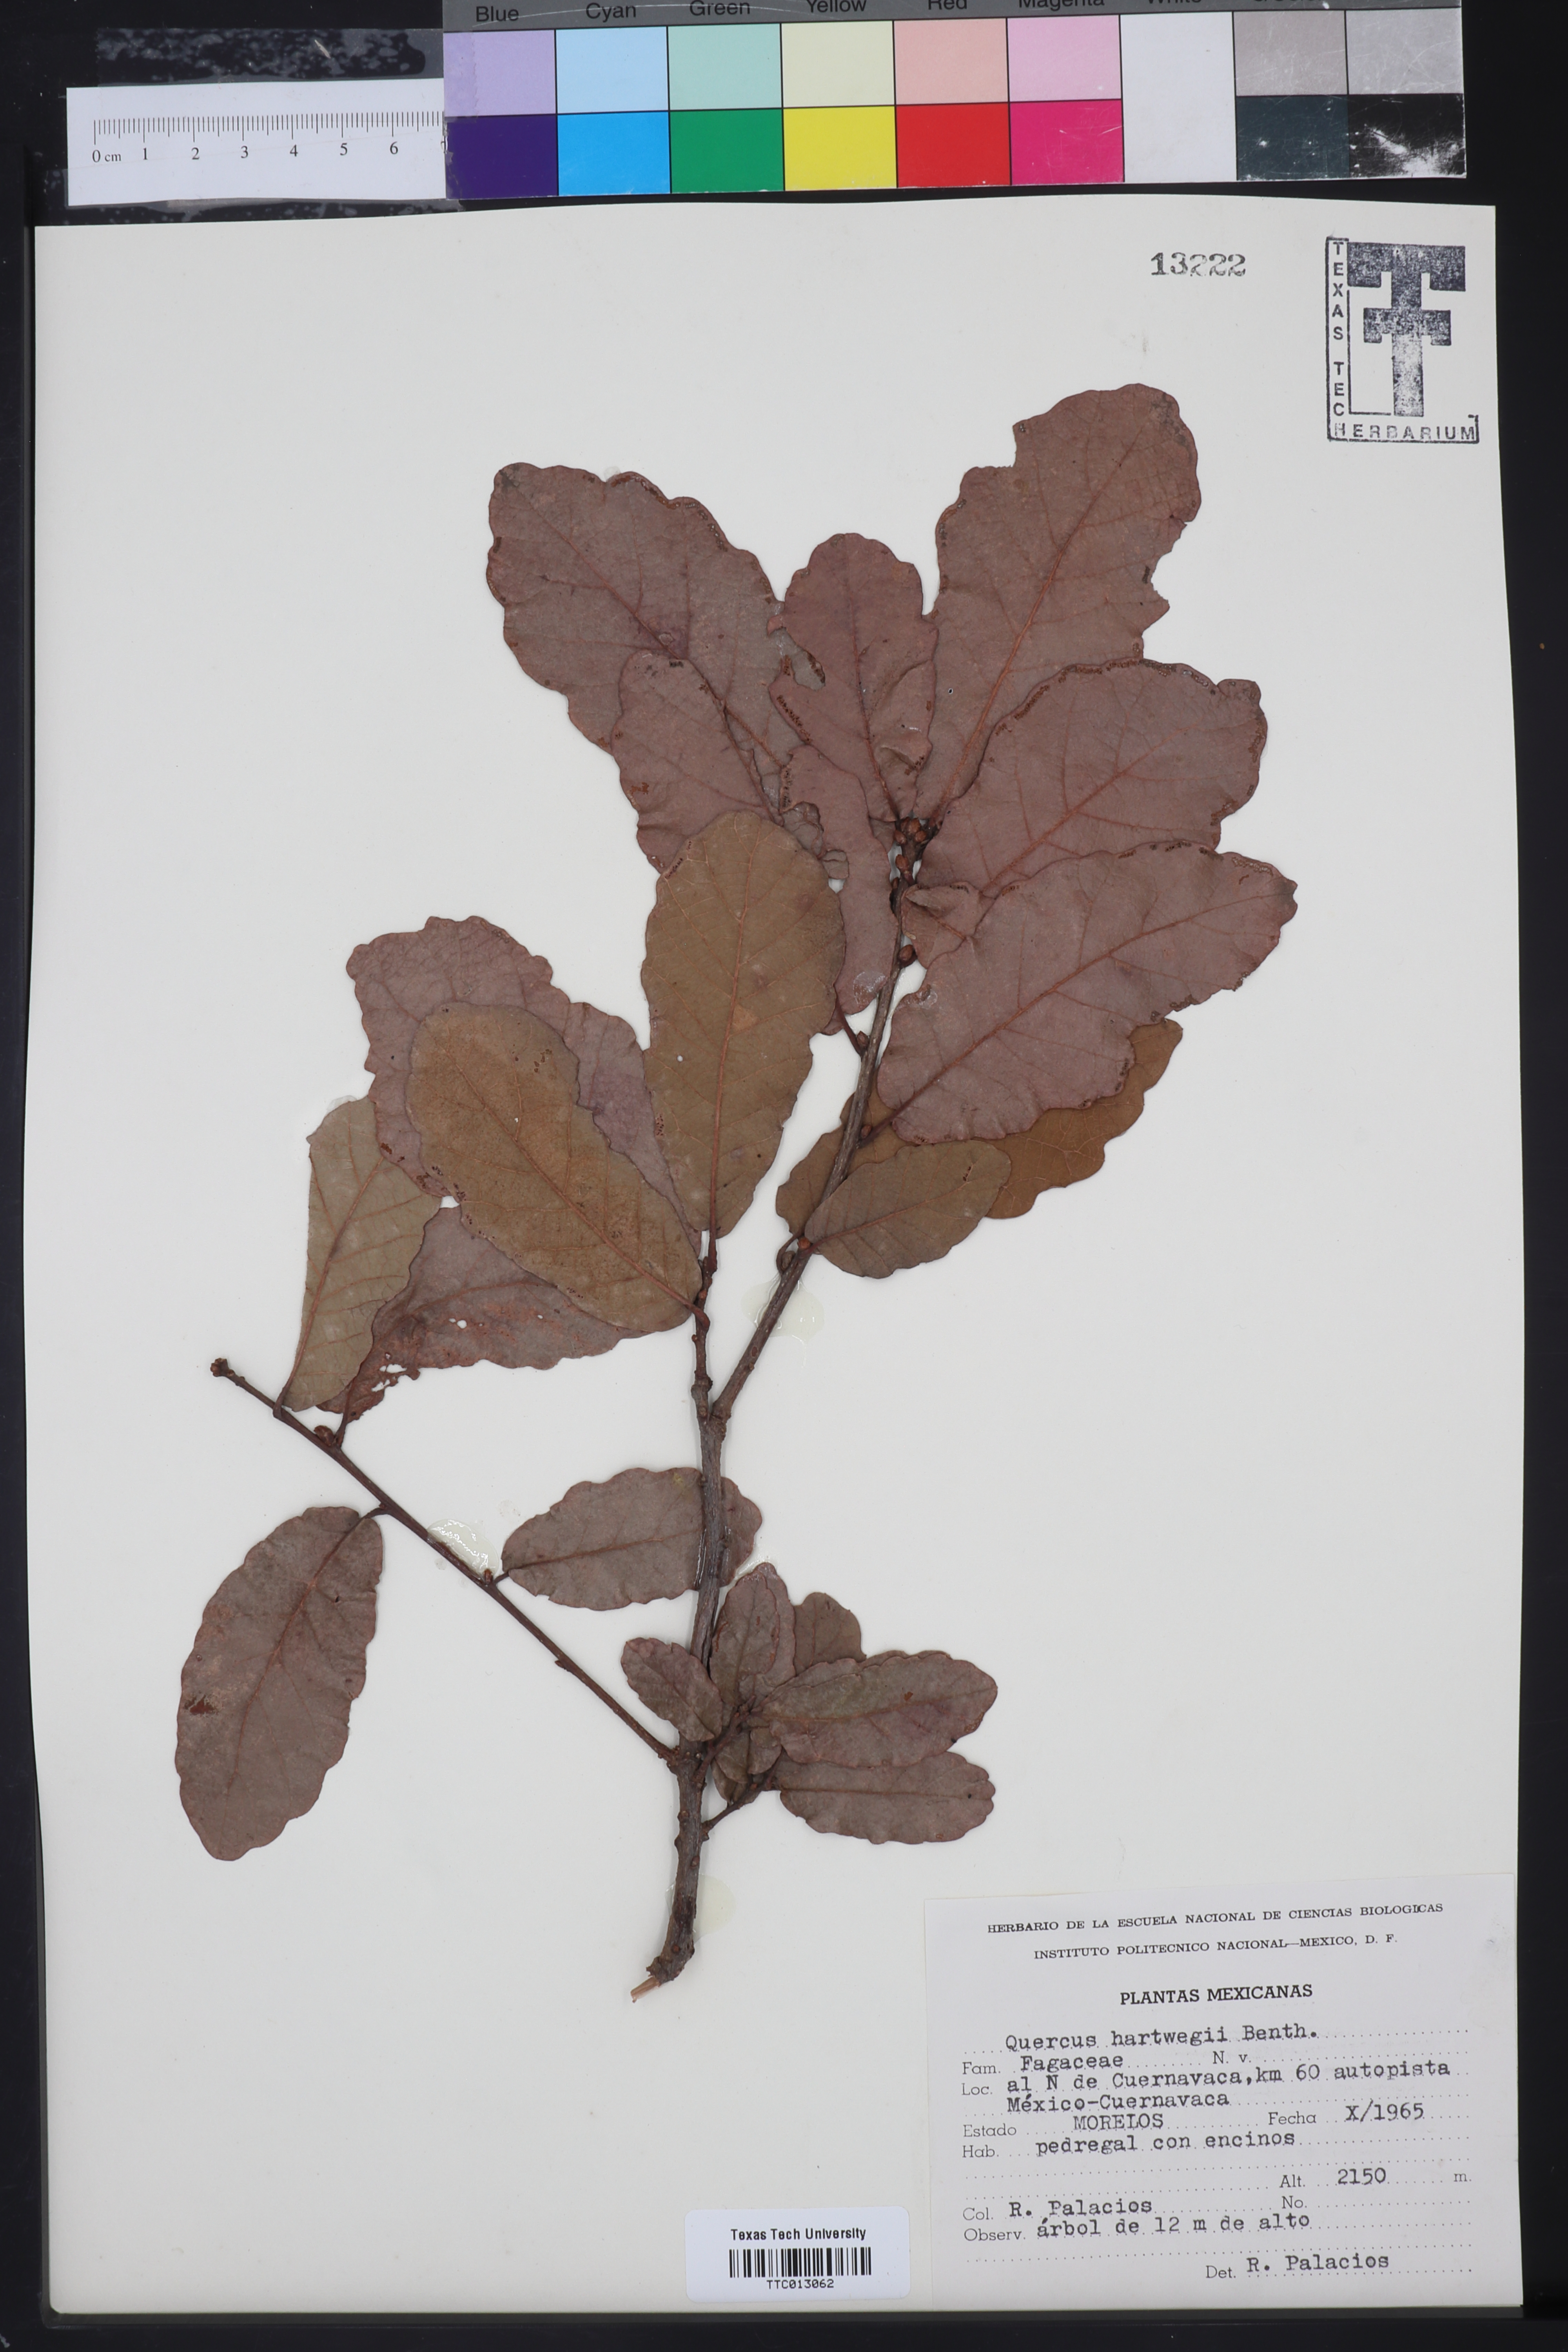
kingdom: Plantae
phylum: Tracheophyta
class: Magnoliopsida
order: Fagales
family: Fagaceae
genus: Quercus
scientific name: Quercus obtusata
